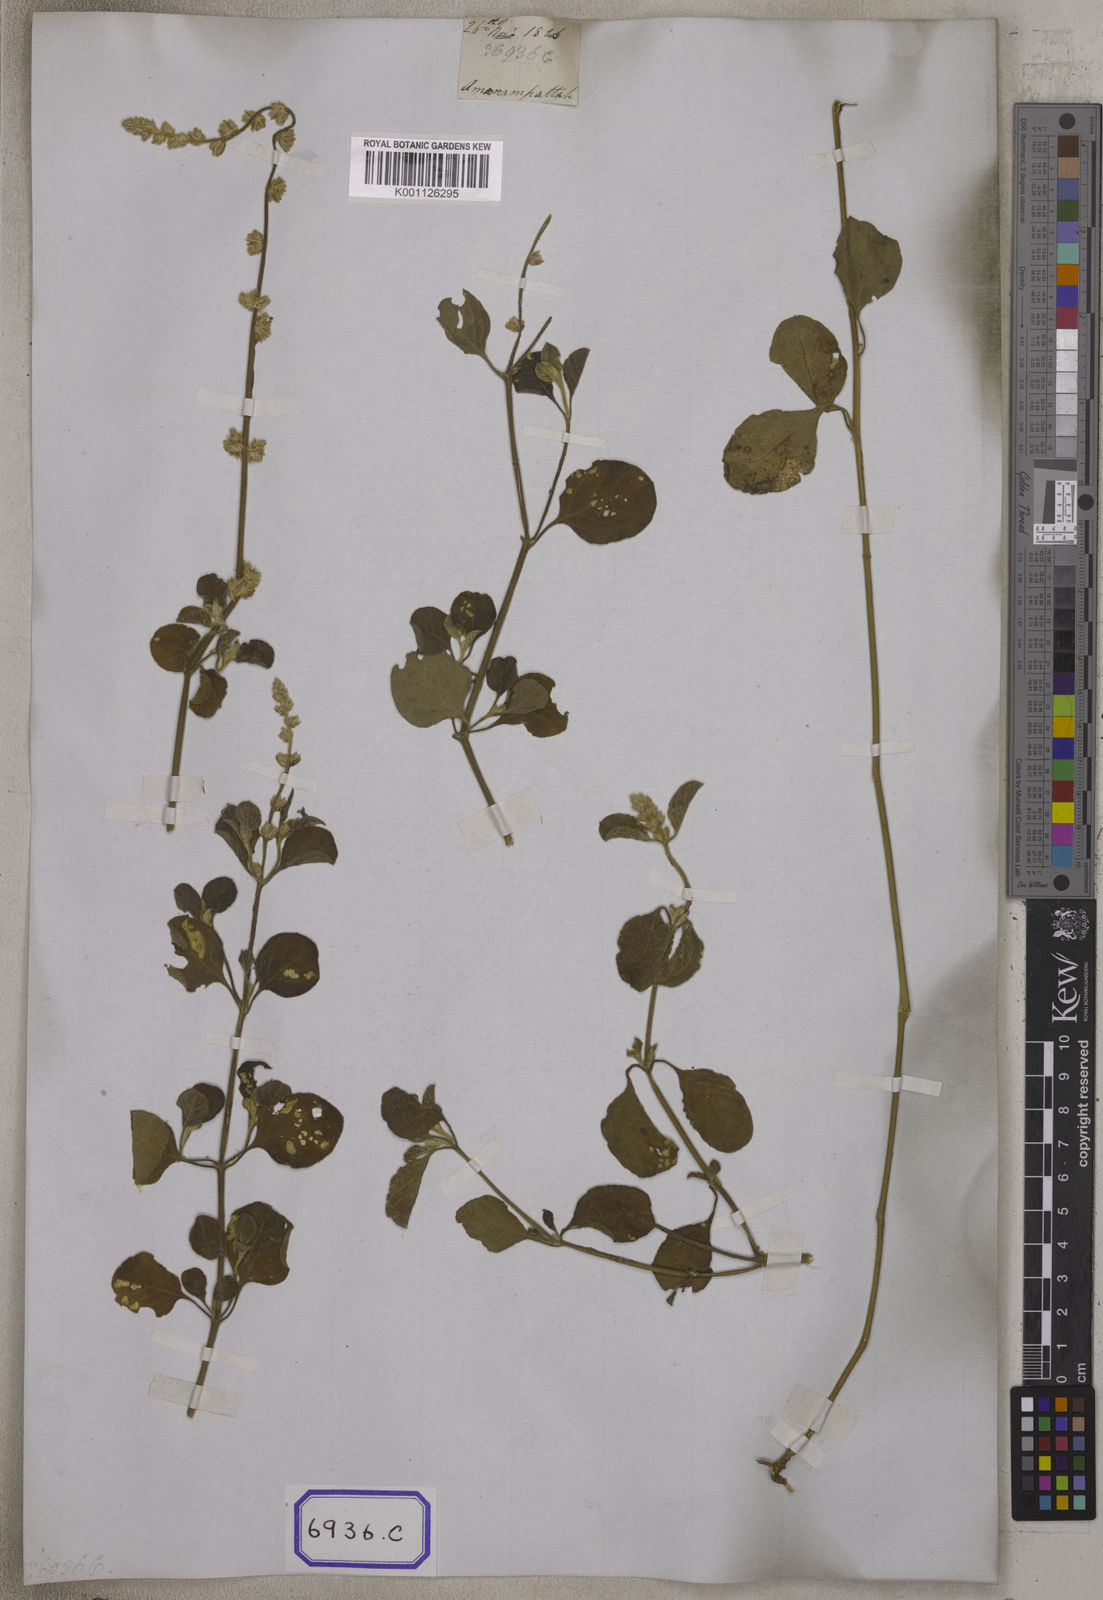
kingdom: Plantae
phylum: Tracheophyta
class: Magnoliopsida
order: Caryophyllales
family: Amaranthaceae
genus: Pupalia
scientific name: Pupalia lappacea
